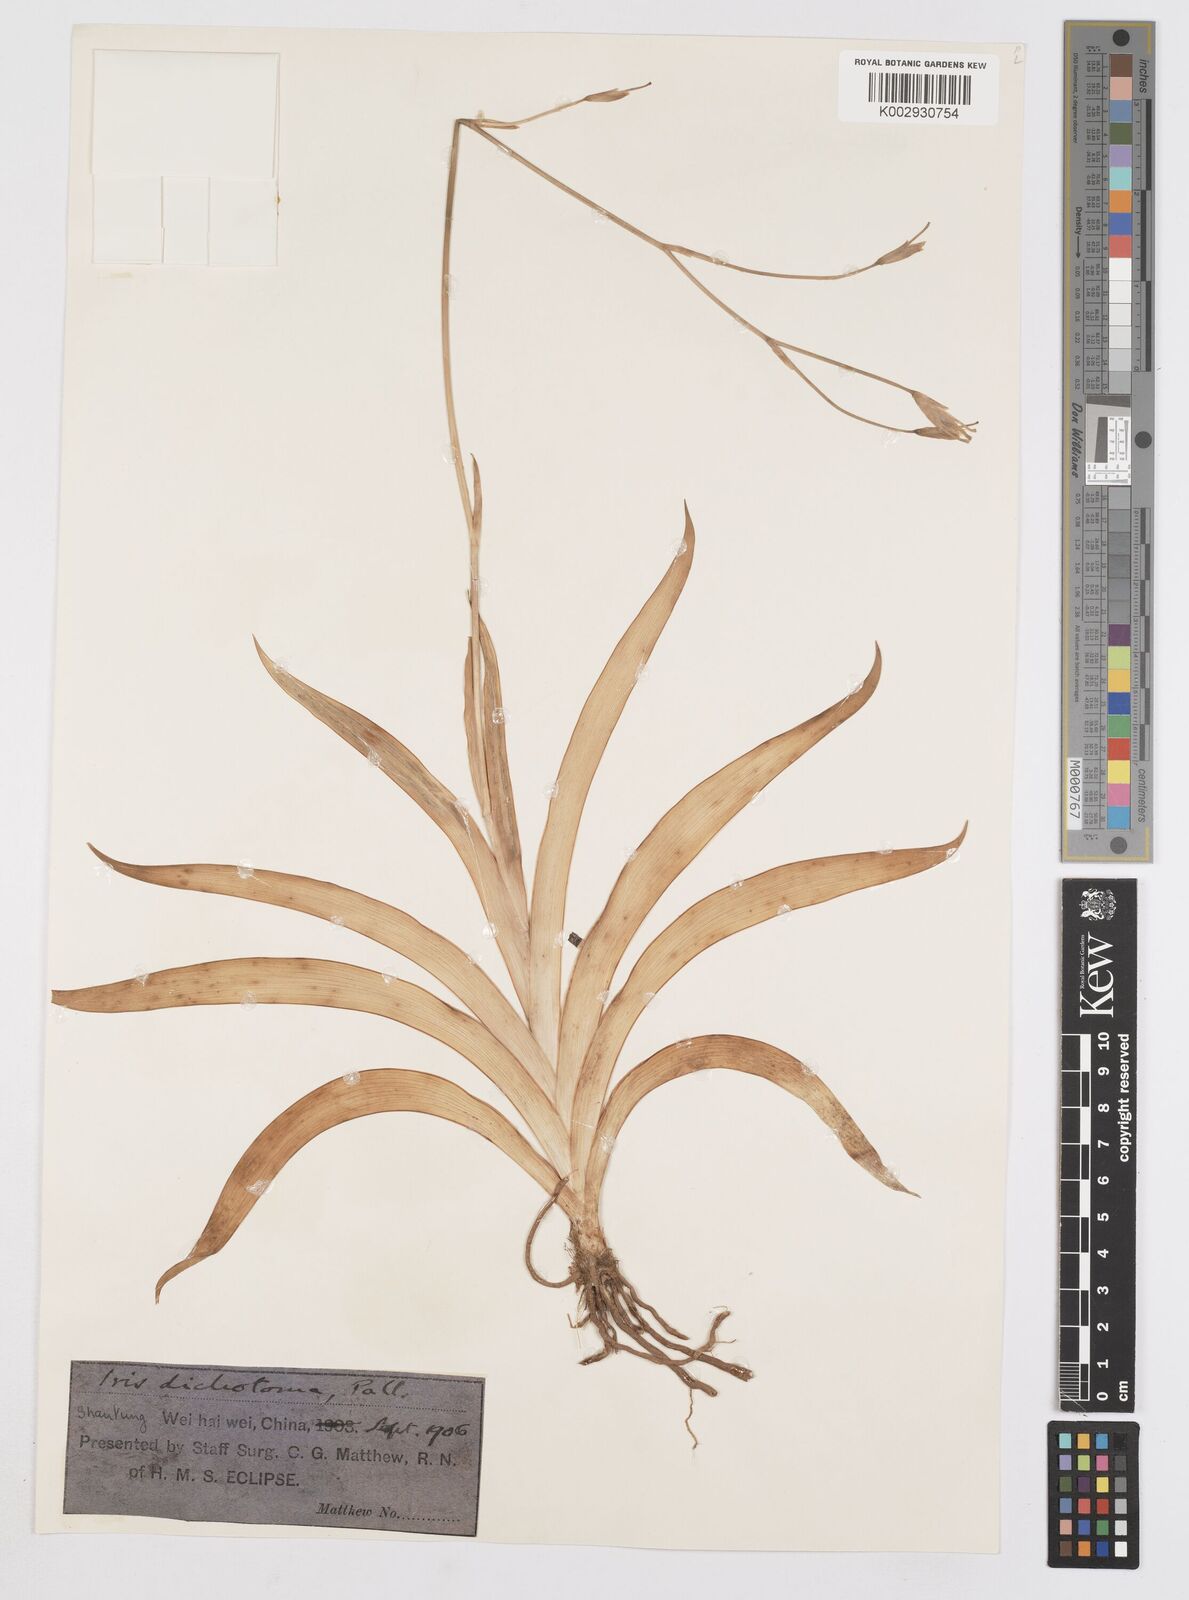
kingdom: Plantae
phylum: Tracheophyta
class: Liliopsida
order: Asparagales
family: Iridaceae
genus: Iris
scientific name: Iris dichotoma
